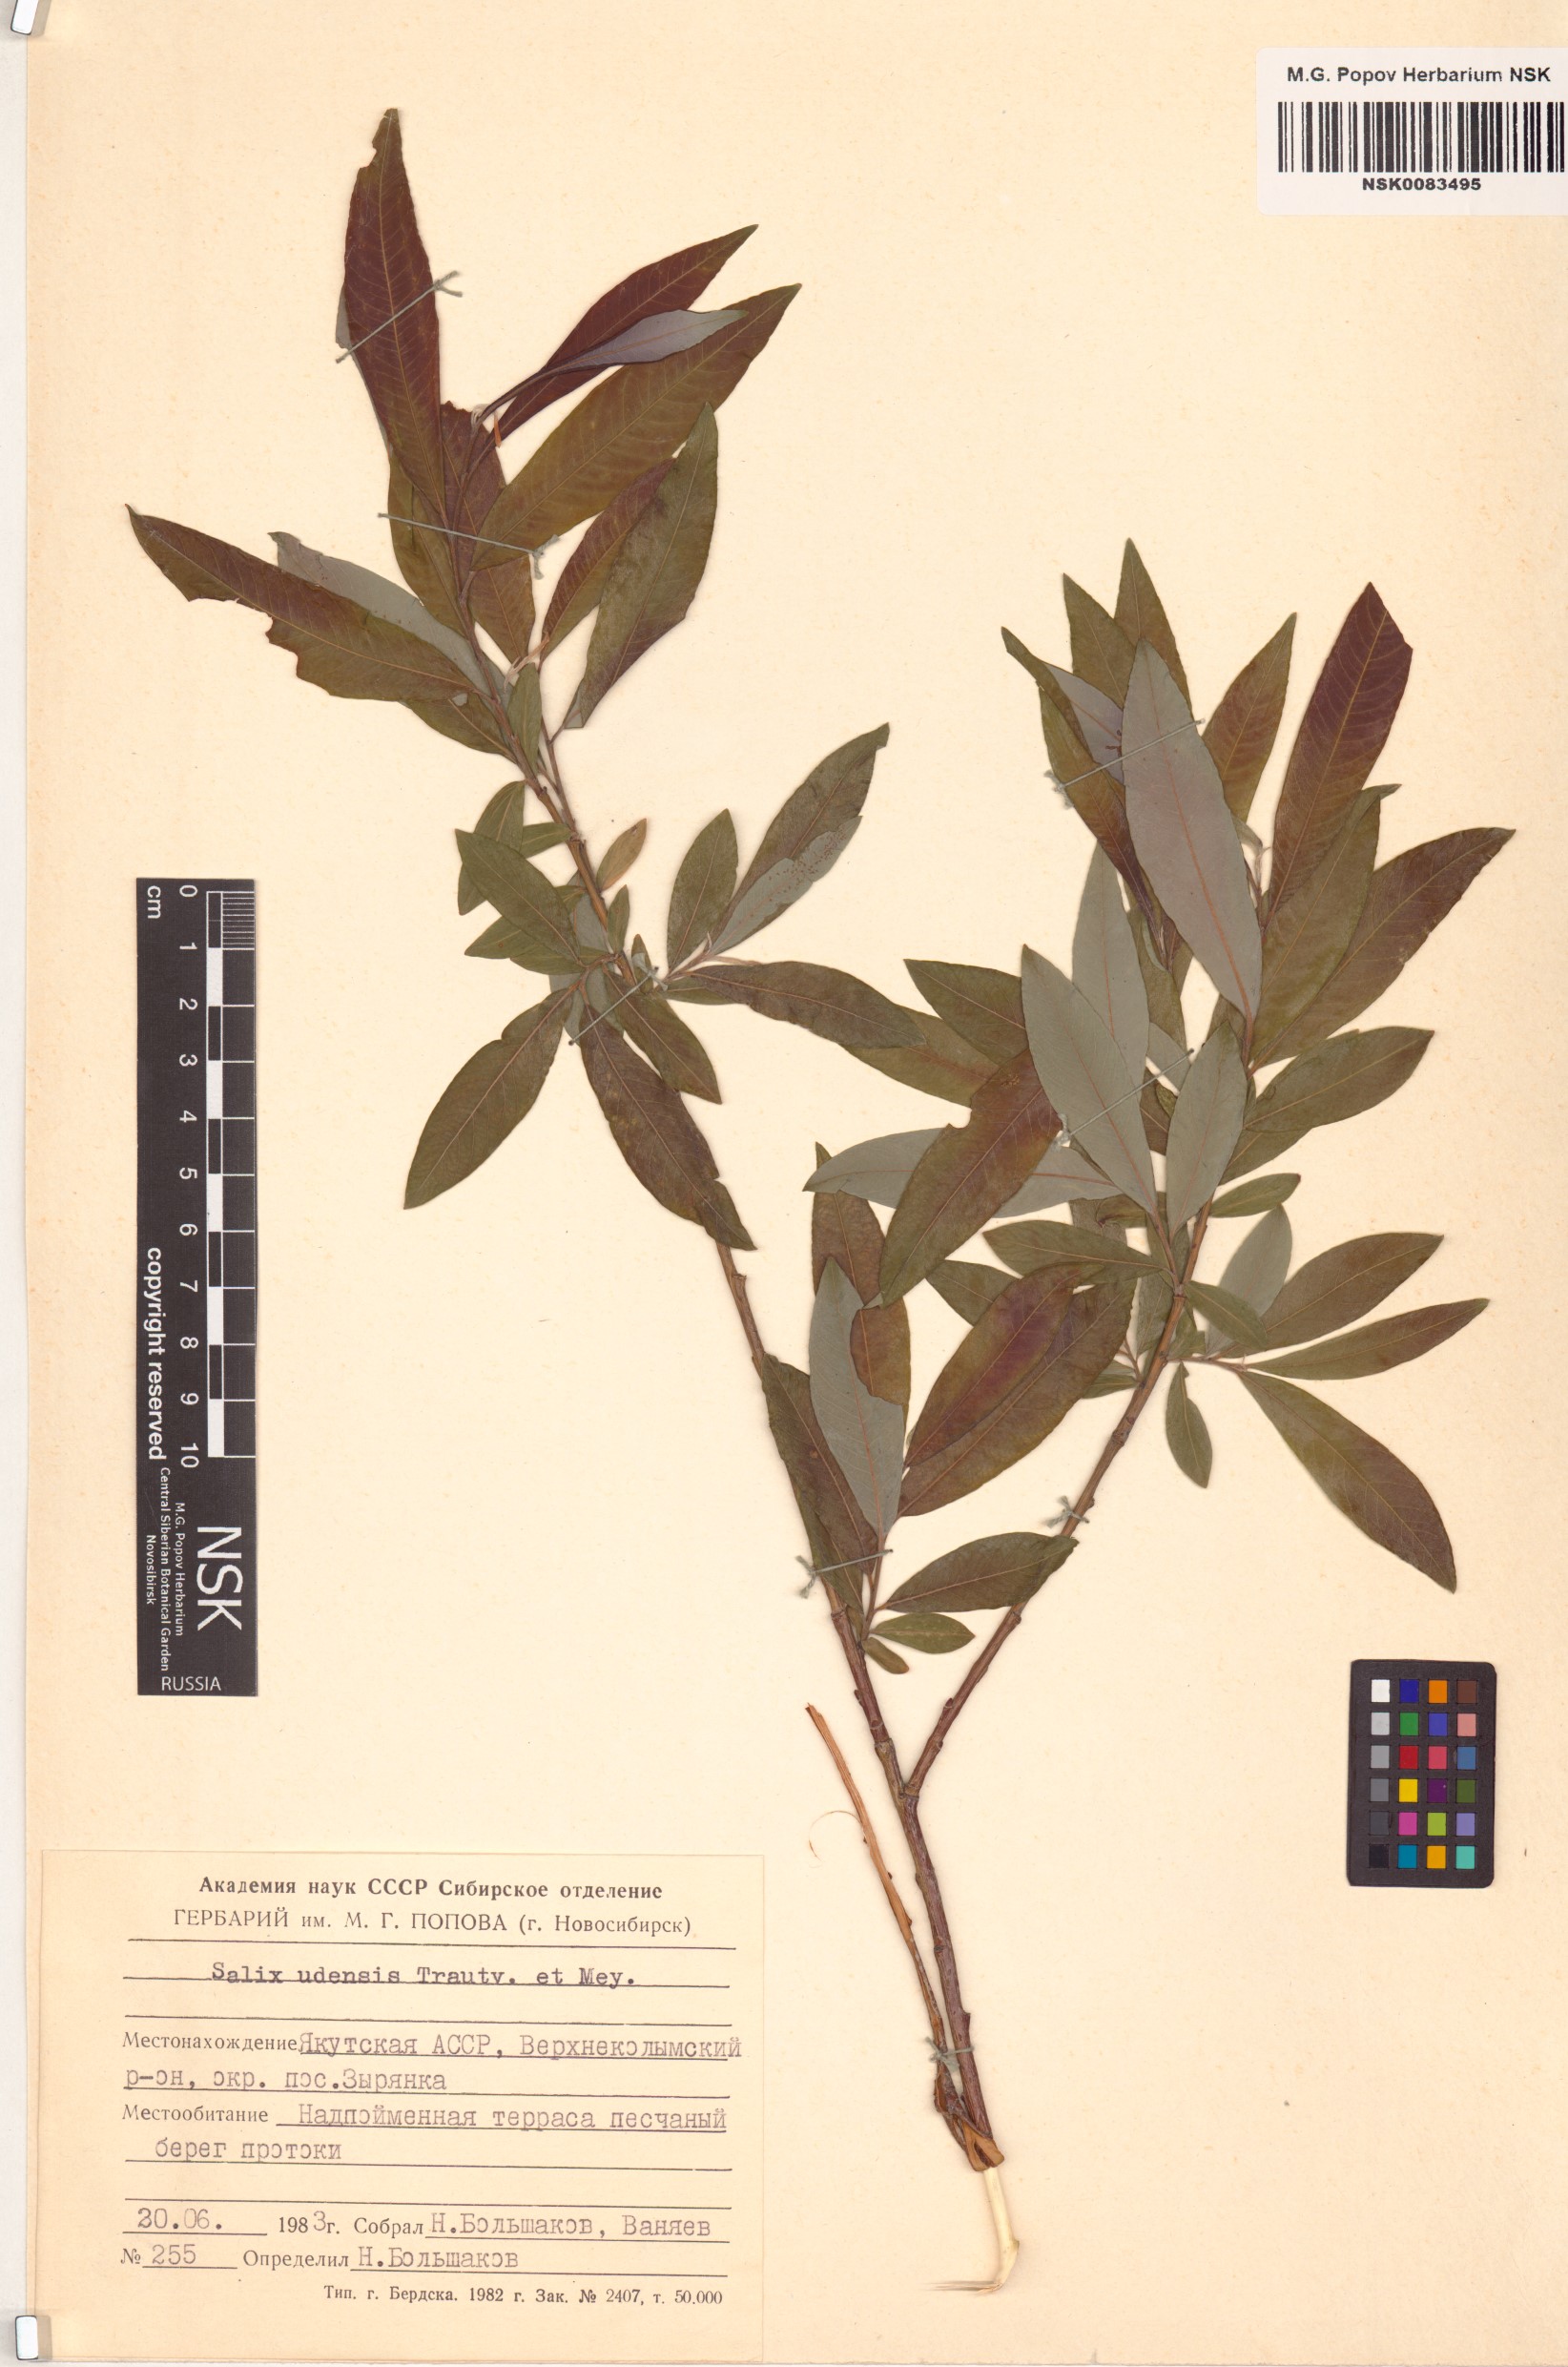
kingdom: Plantae
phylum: Tracheophyta
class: Magnoliopsida
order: Malpighiales
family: Salicaceae
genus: Salix
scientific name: Salix udensis
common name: Sachalin willow
